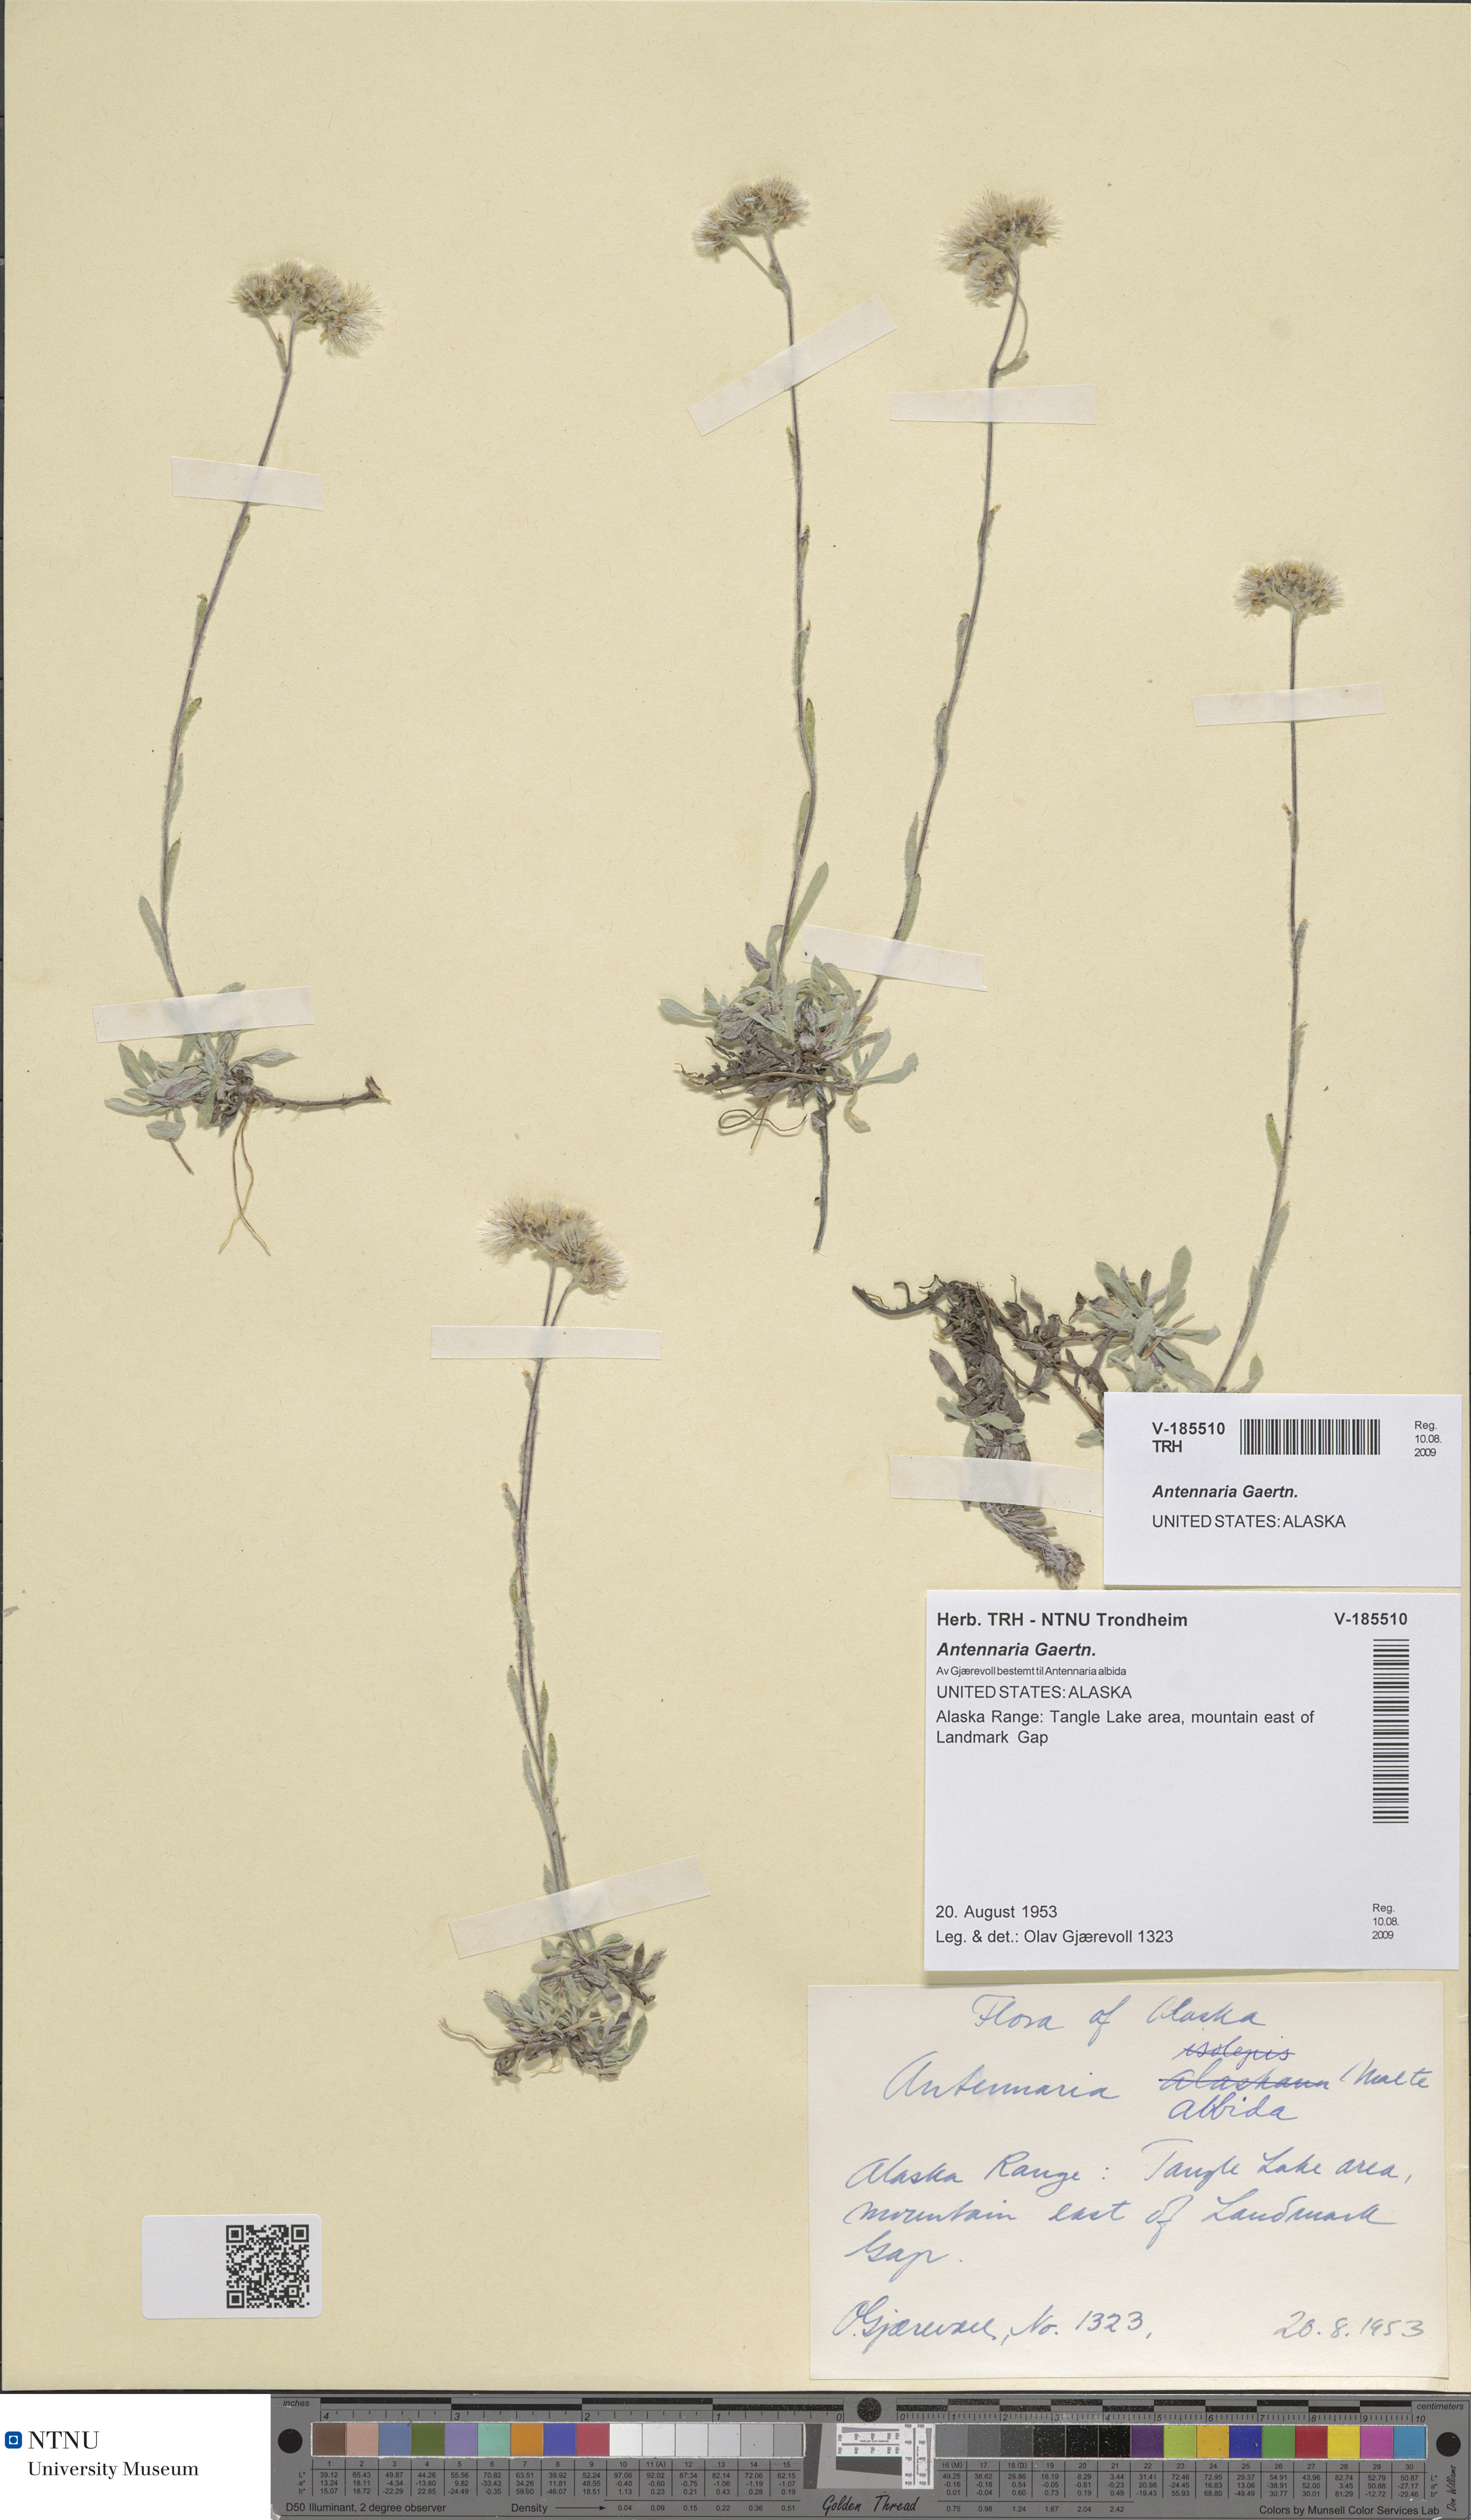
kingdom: Plantae
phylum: Tracheophyta
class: Magnoliopsida
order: Asterales
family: Asteraceae
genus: Antennaria
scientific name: Antennaria
